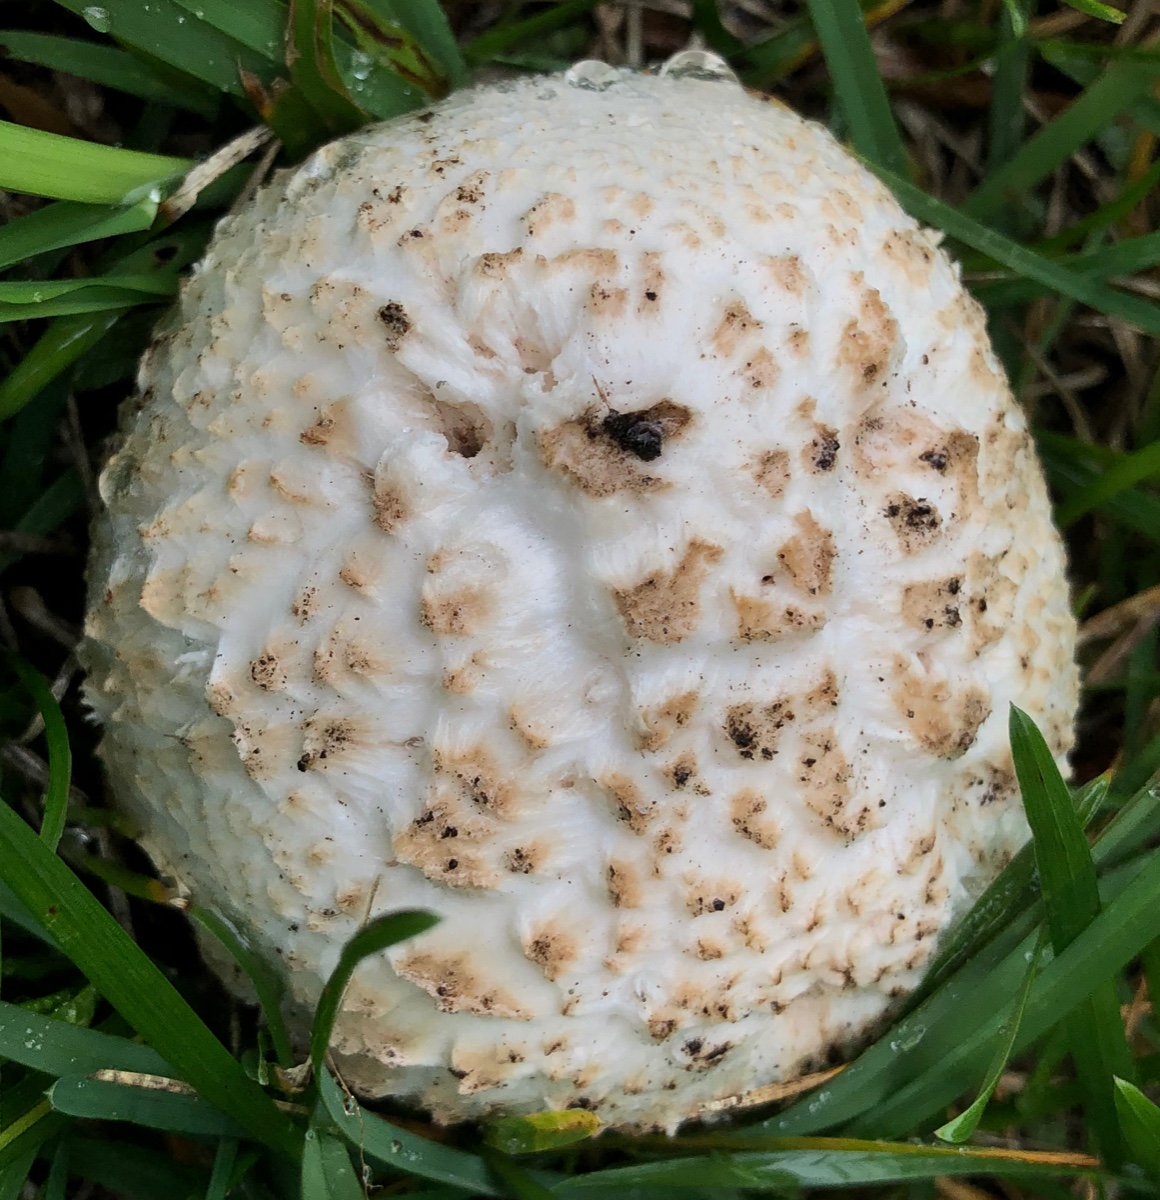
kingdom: Fungi
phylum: Basidiomycota
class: Agaricomycetes
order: Agaricales
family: Agaricaceae
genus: Agaricus
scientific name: Agaricus bernardii
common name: strandengs-champignon
